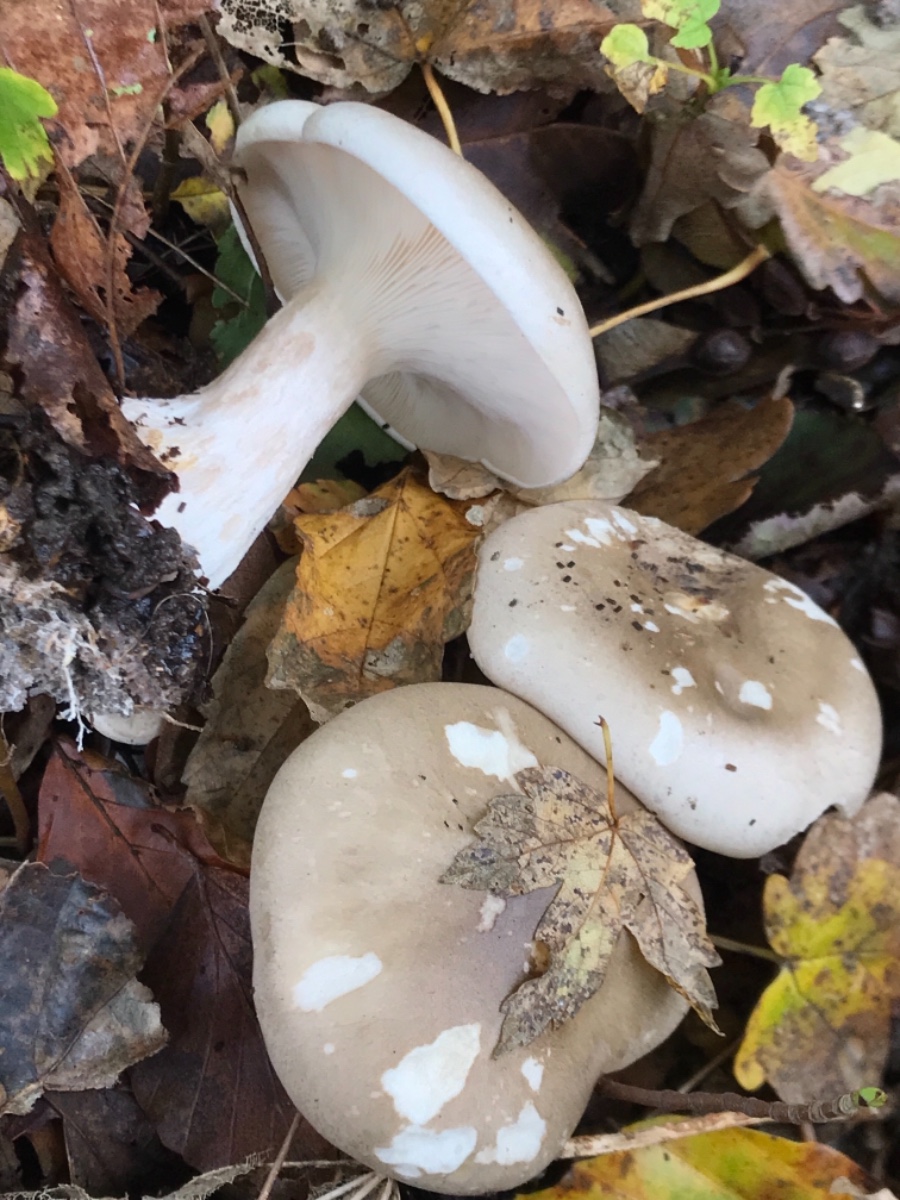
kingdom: Fungi
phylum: Basidiomycota
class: Agaricomycetes
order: Agaricales
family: Tricholomataceae
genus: Clitocybe
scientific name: Clitocybe nebularis
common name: tåge-tragthat
